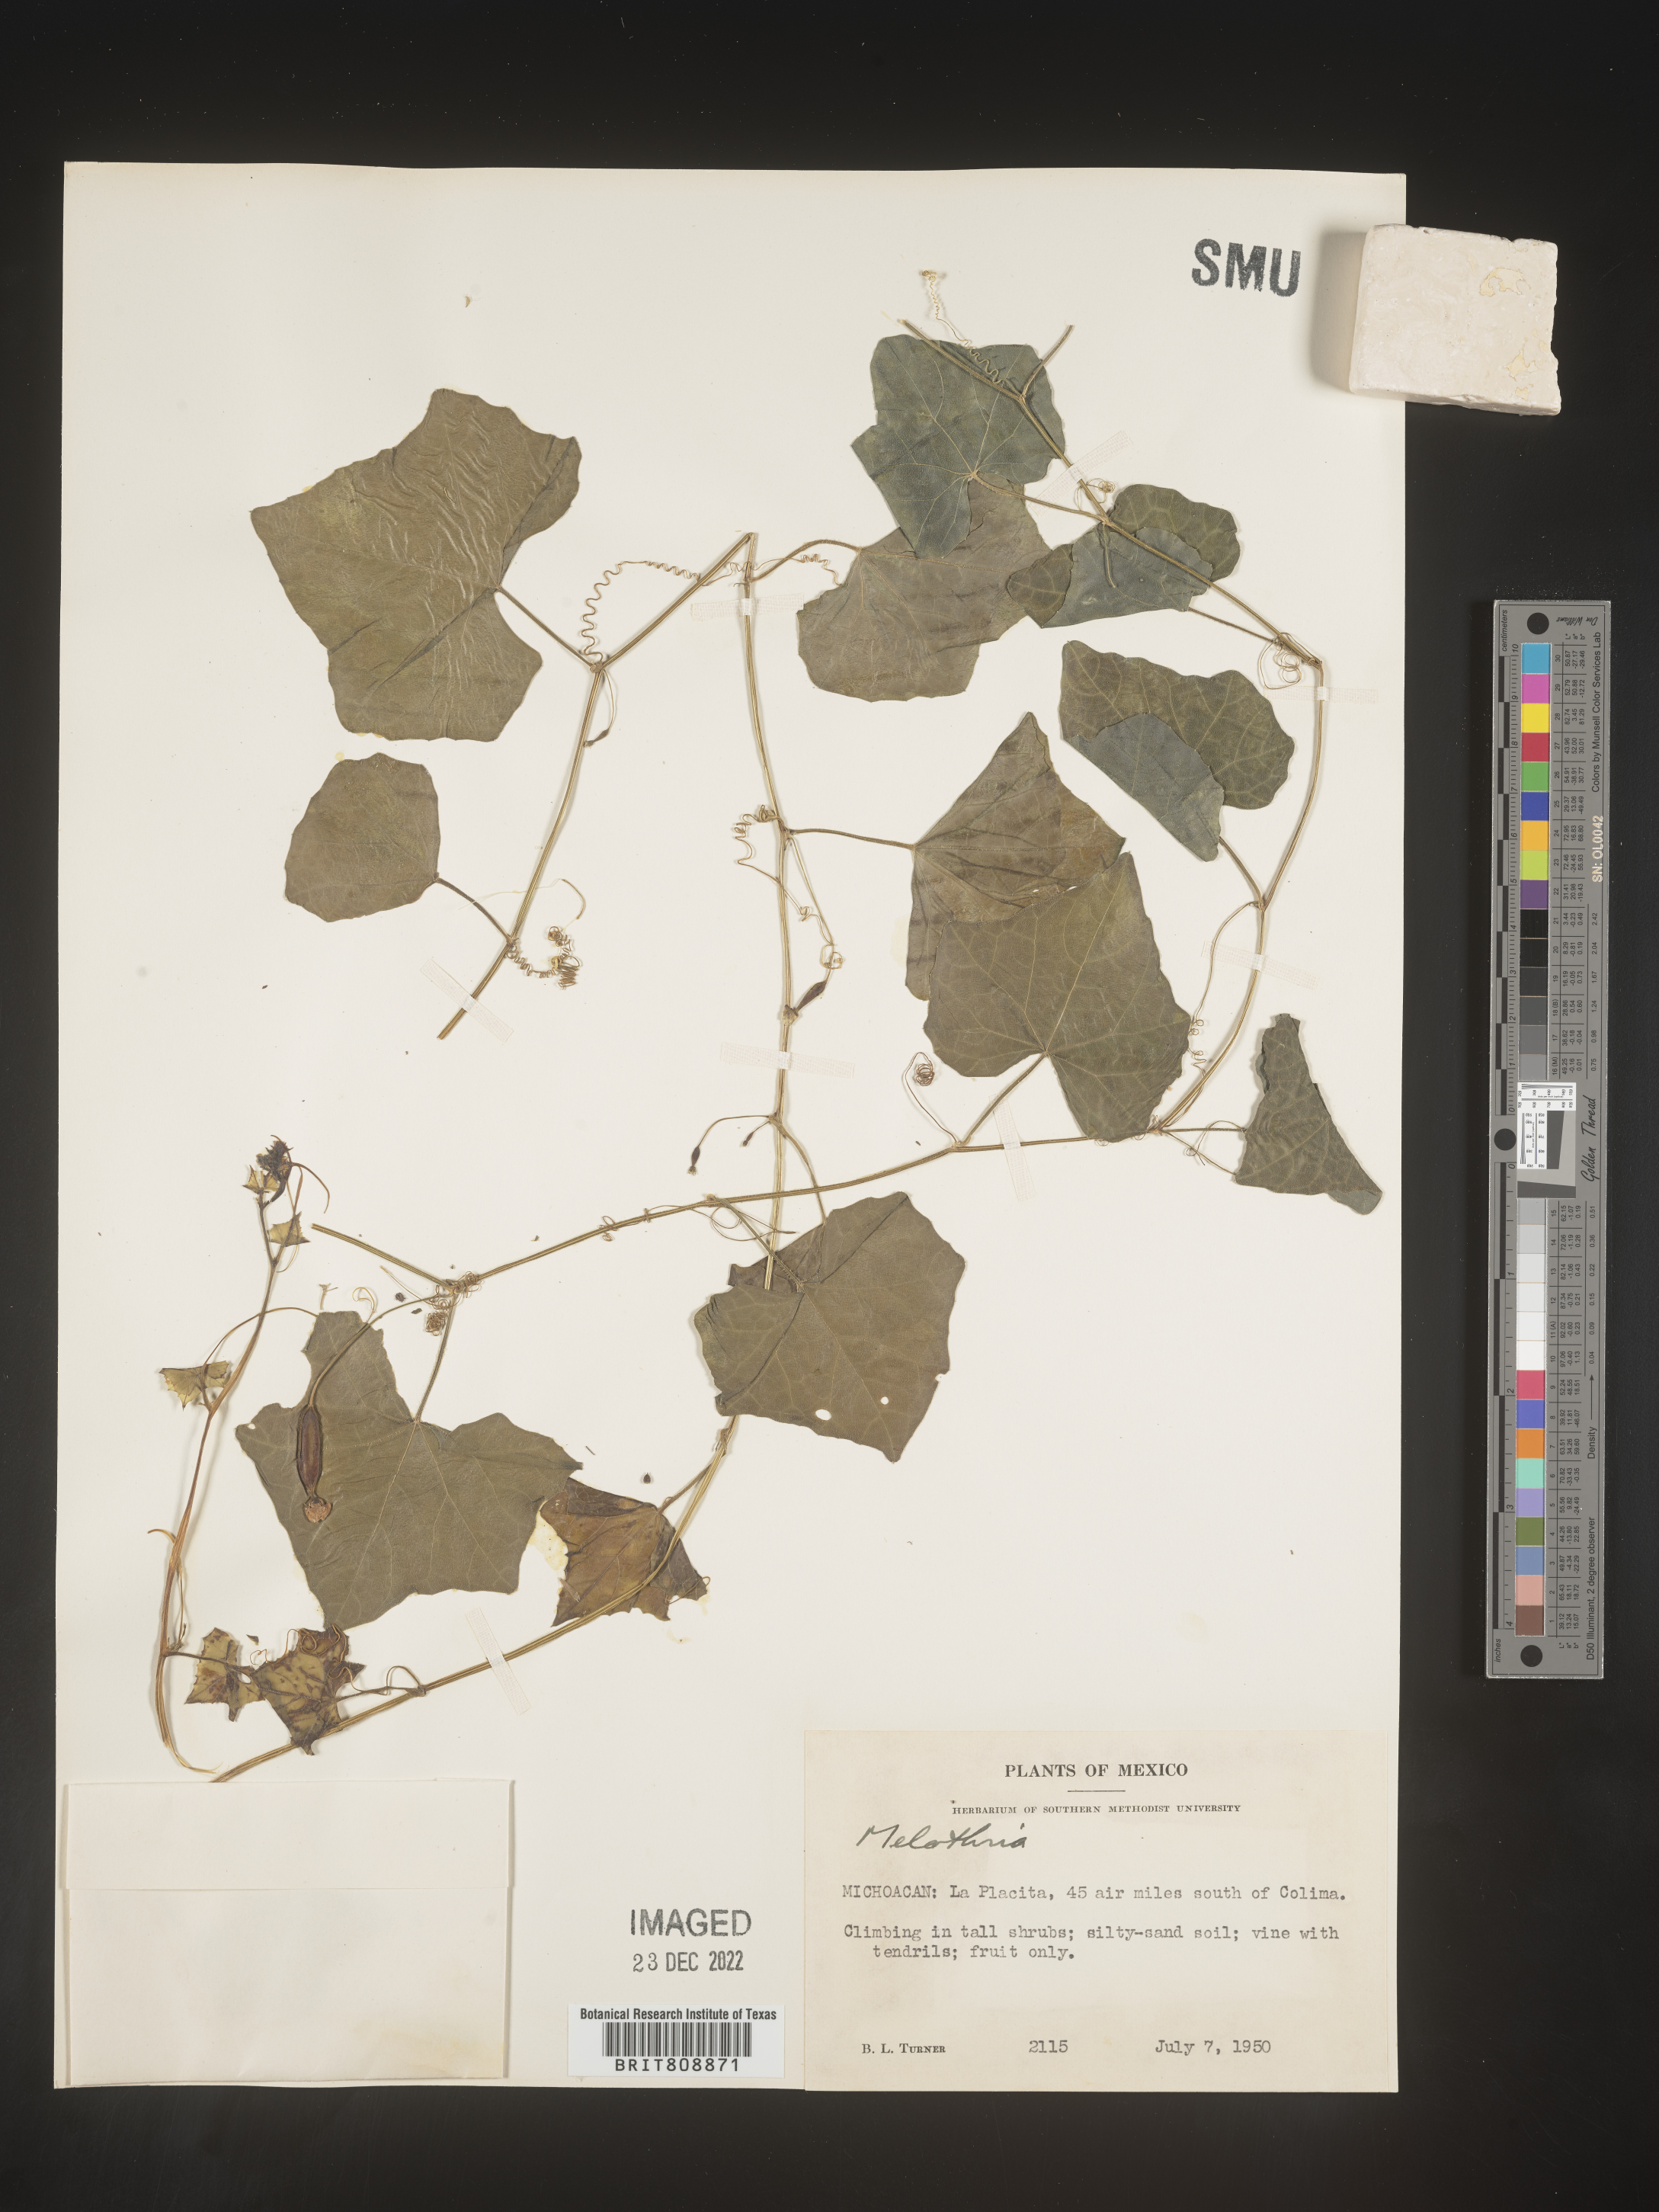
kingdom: Plantae
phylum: Tracheophyta
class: Magnoliopsida
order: Cucurbitales
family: Cucurbitaceae
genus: Melothria
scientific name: Melothria
